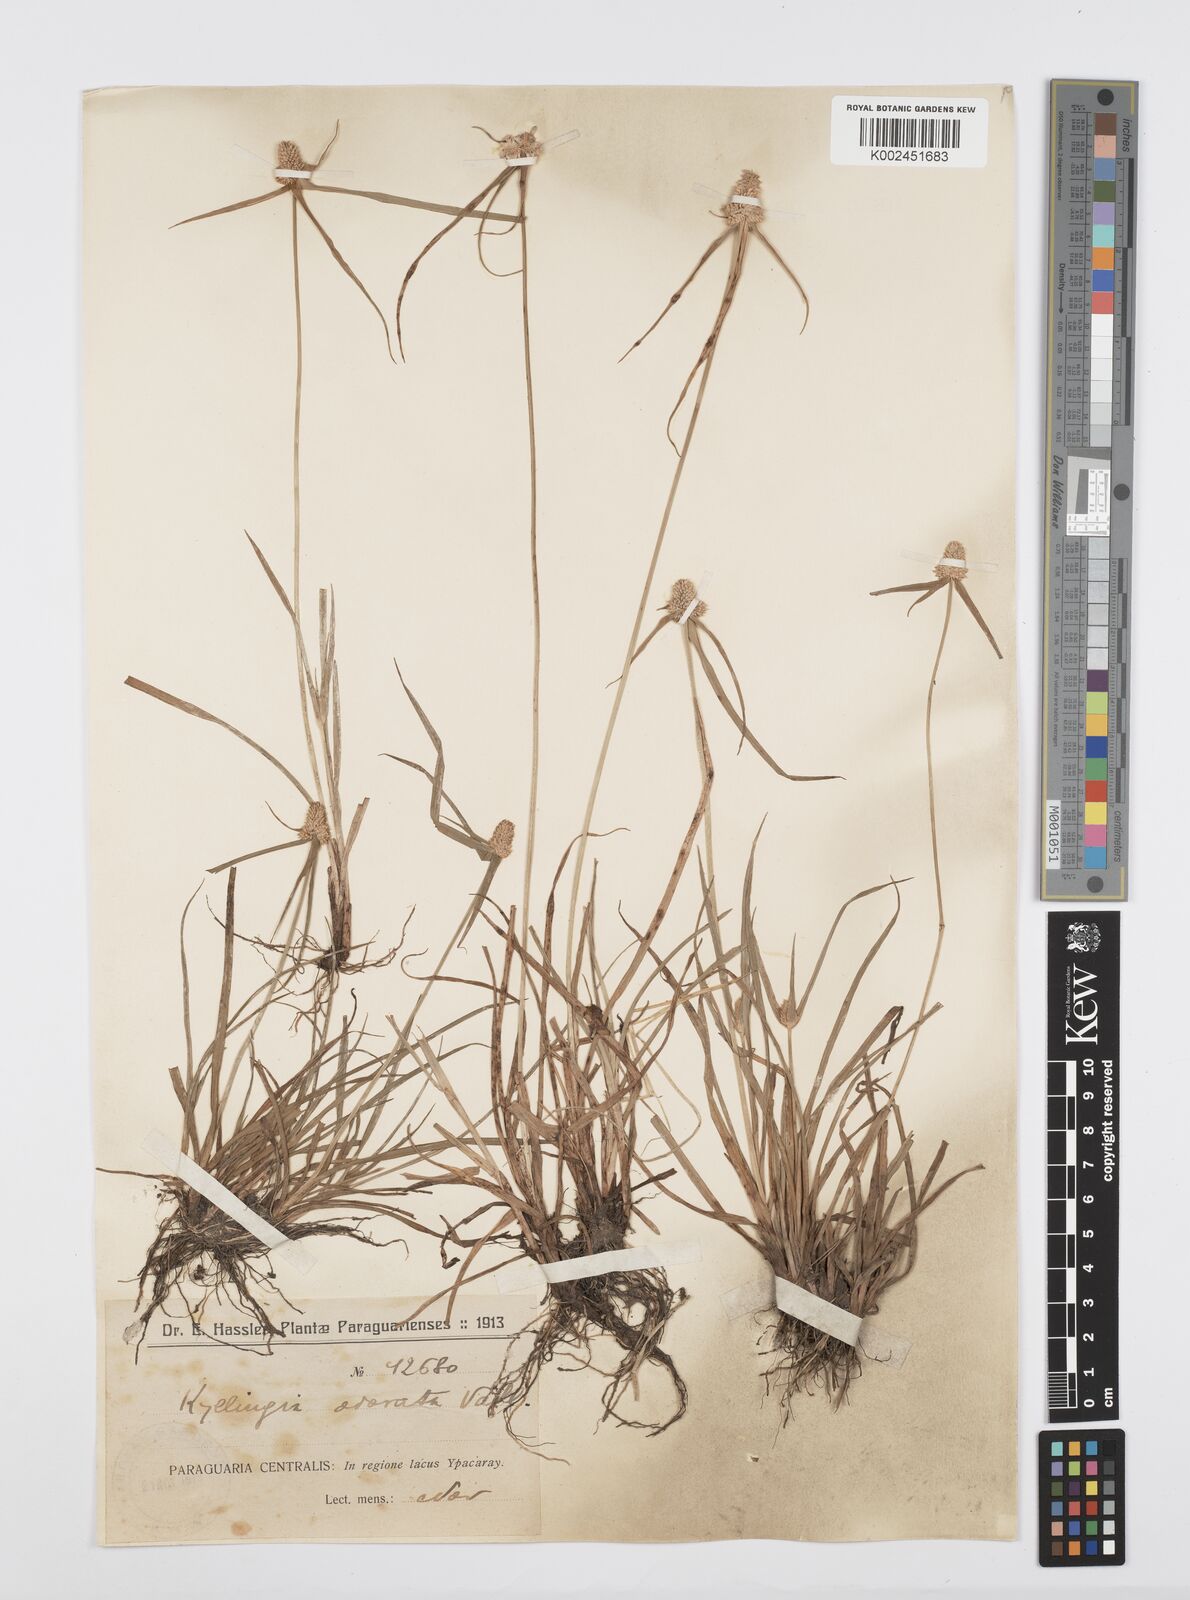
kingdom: Plantae
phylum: Tracheophyta
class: Liliopsida
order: Poales
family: Cyperaceae
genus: Cyperus
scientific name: Cyperus
